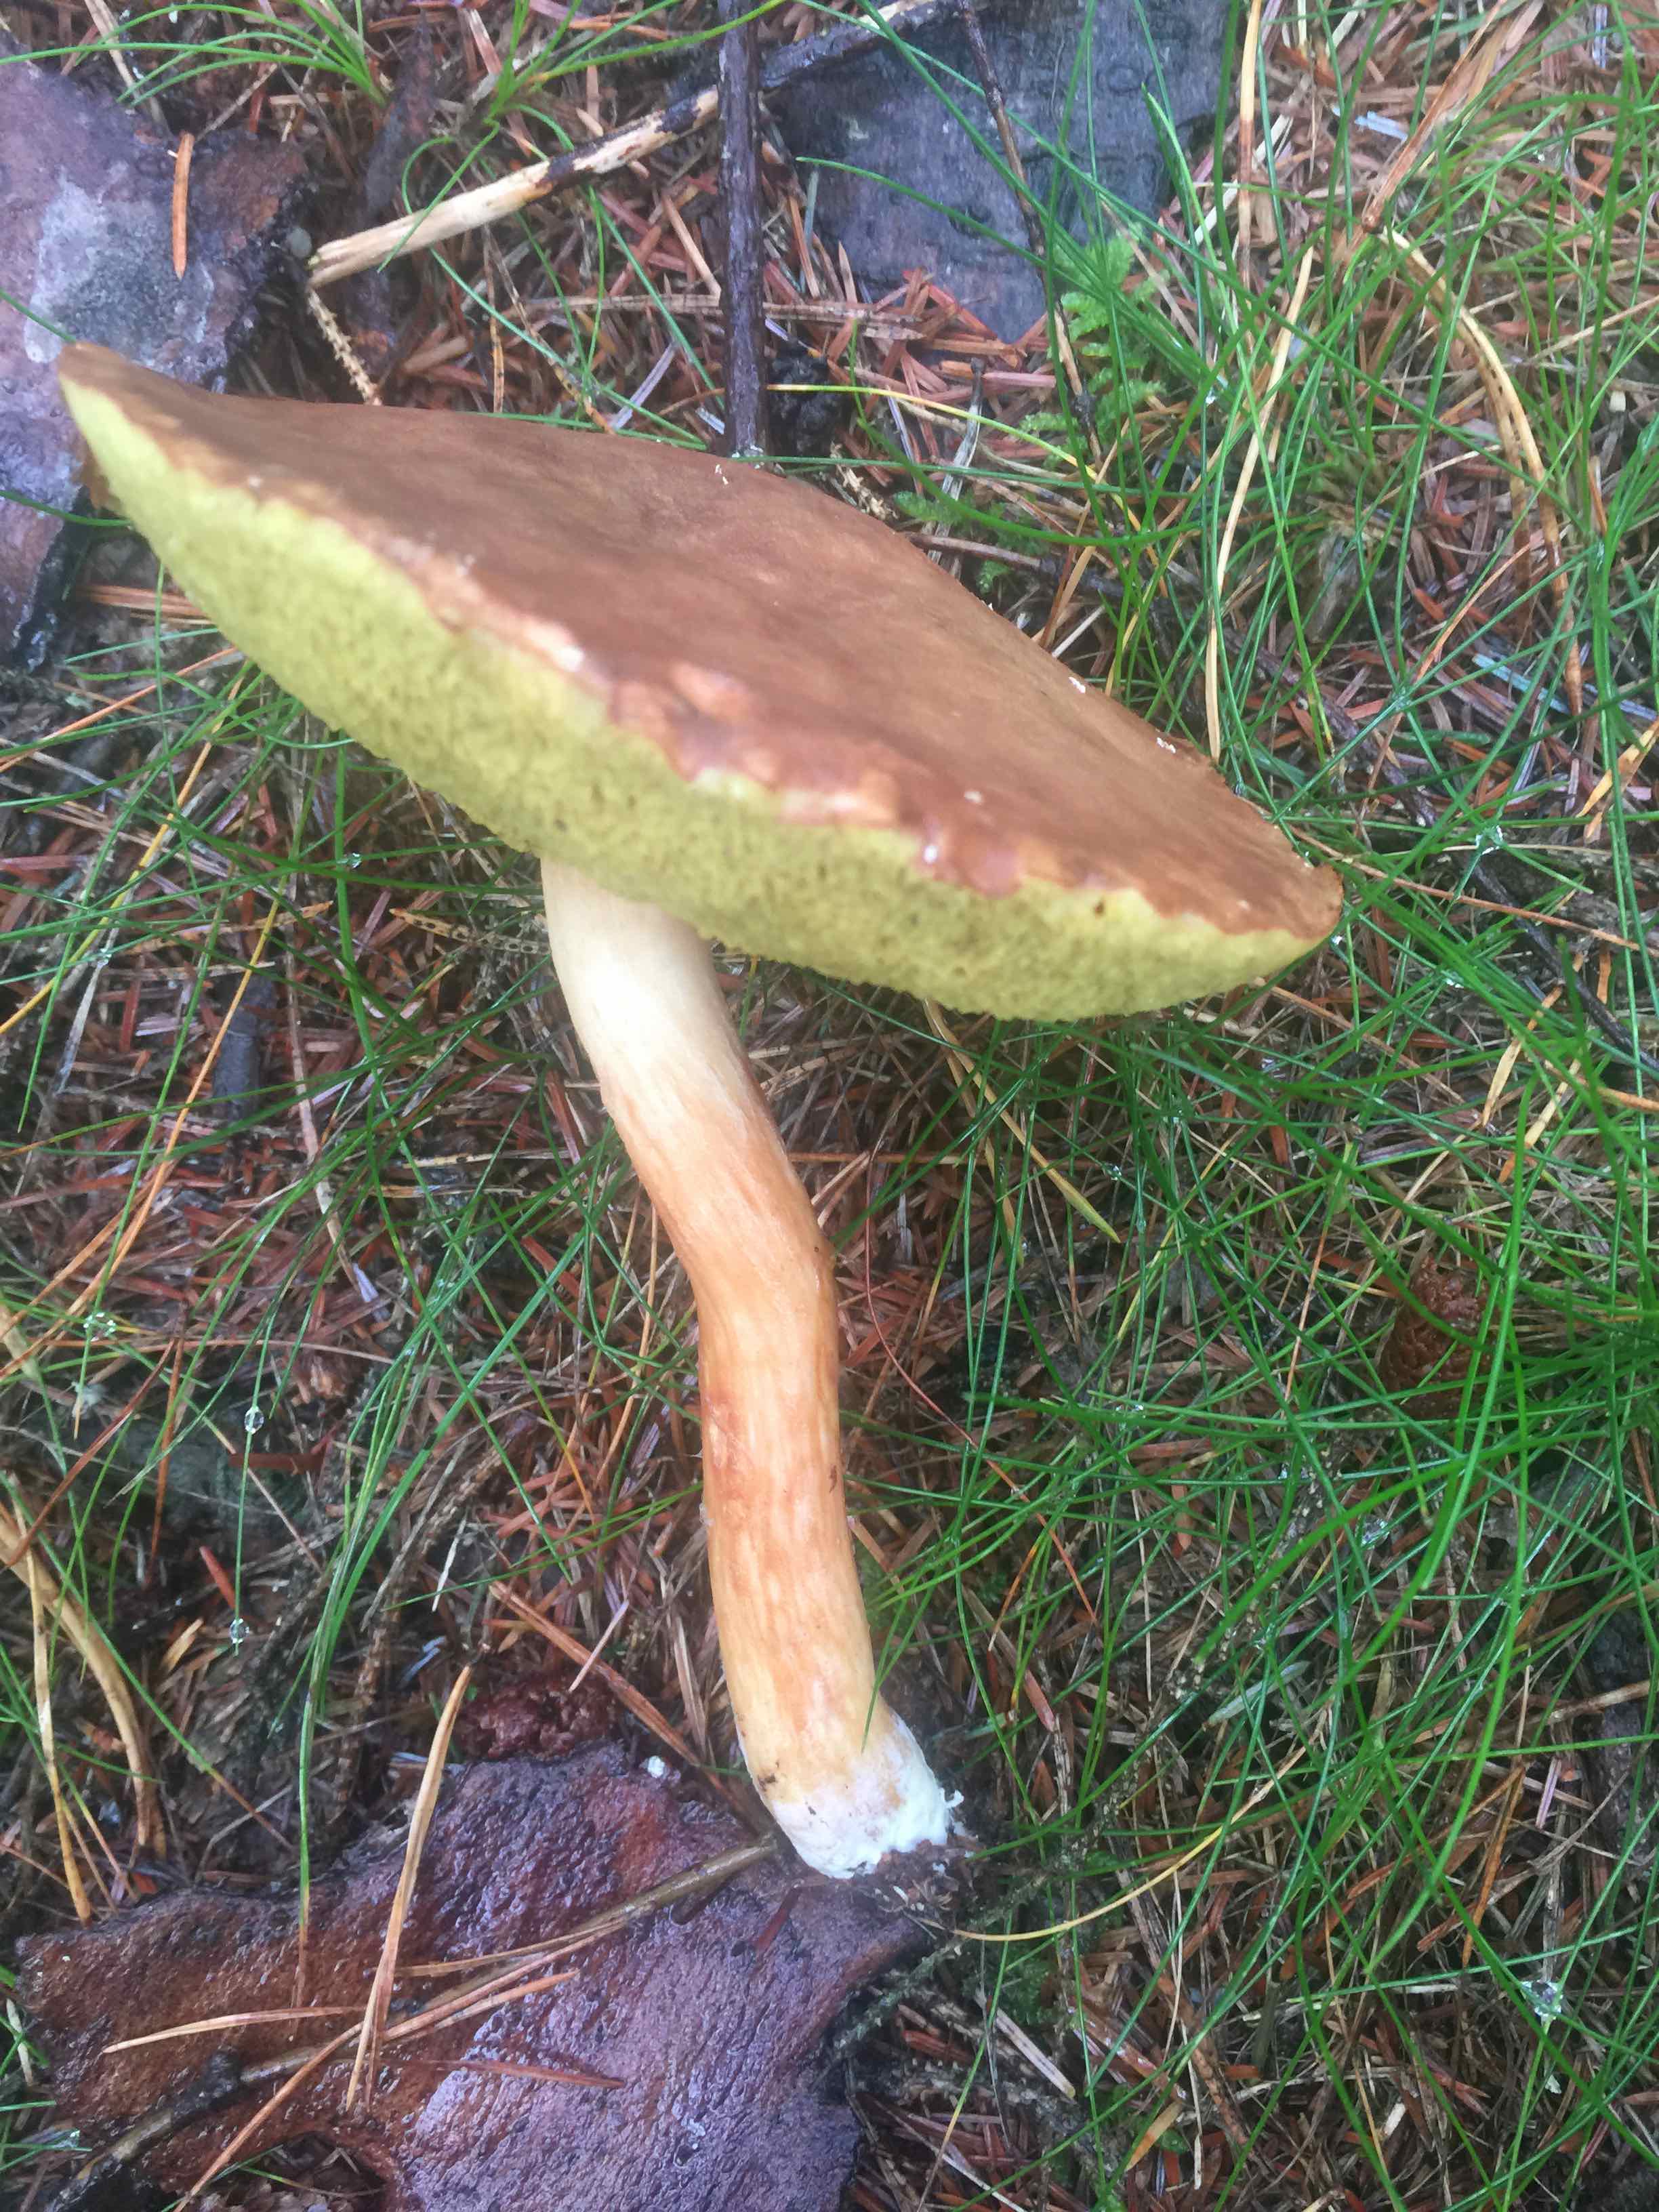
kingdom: Fungi
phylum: Basidiomycota
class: Agaricomycetes
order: Boletales
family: Boletaceae
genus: Xerocomus
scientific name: Xerocomus
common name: filtrørhat
